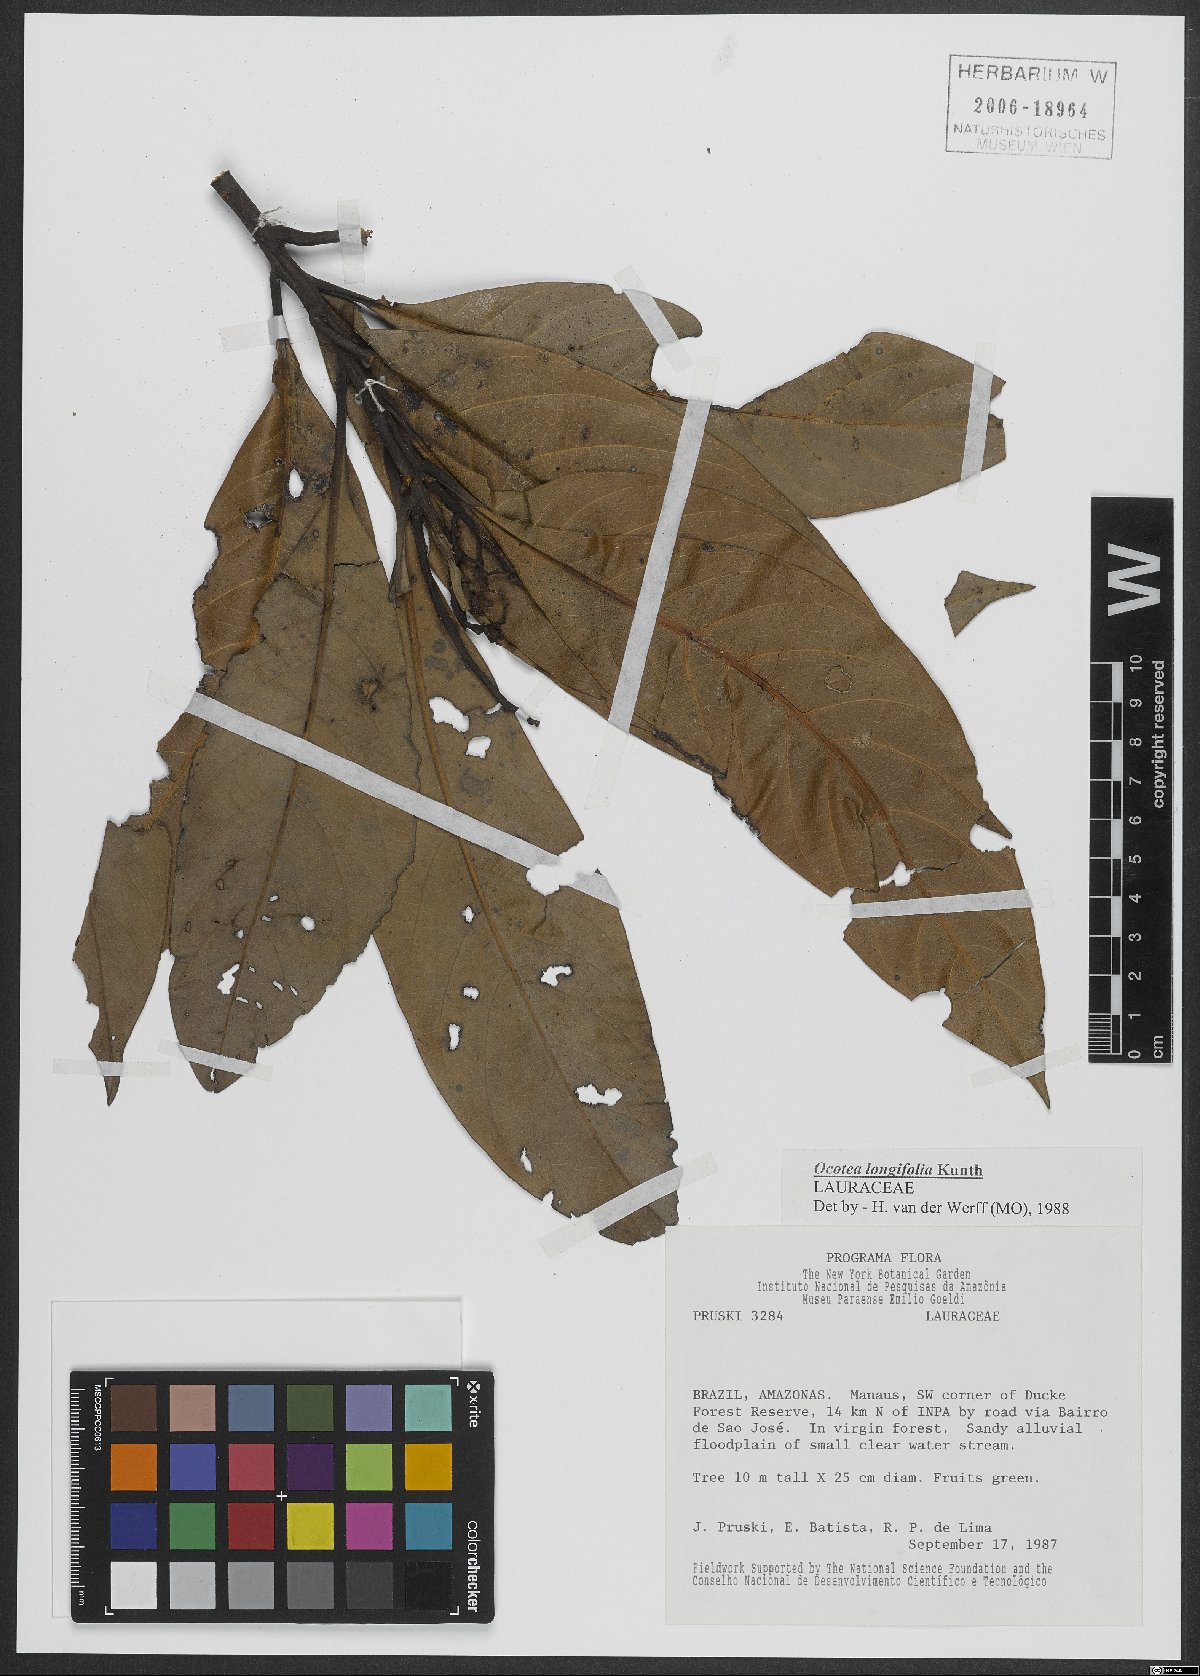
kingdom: Plantae
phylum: Tracheophyta
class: Magnoliopsida
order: Laurales
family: Lauraceae
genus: Mespilodaphne
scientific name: Mespilodaphne opifera
